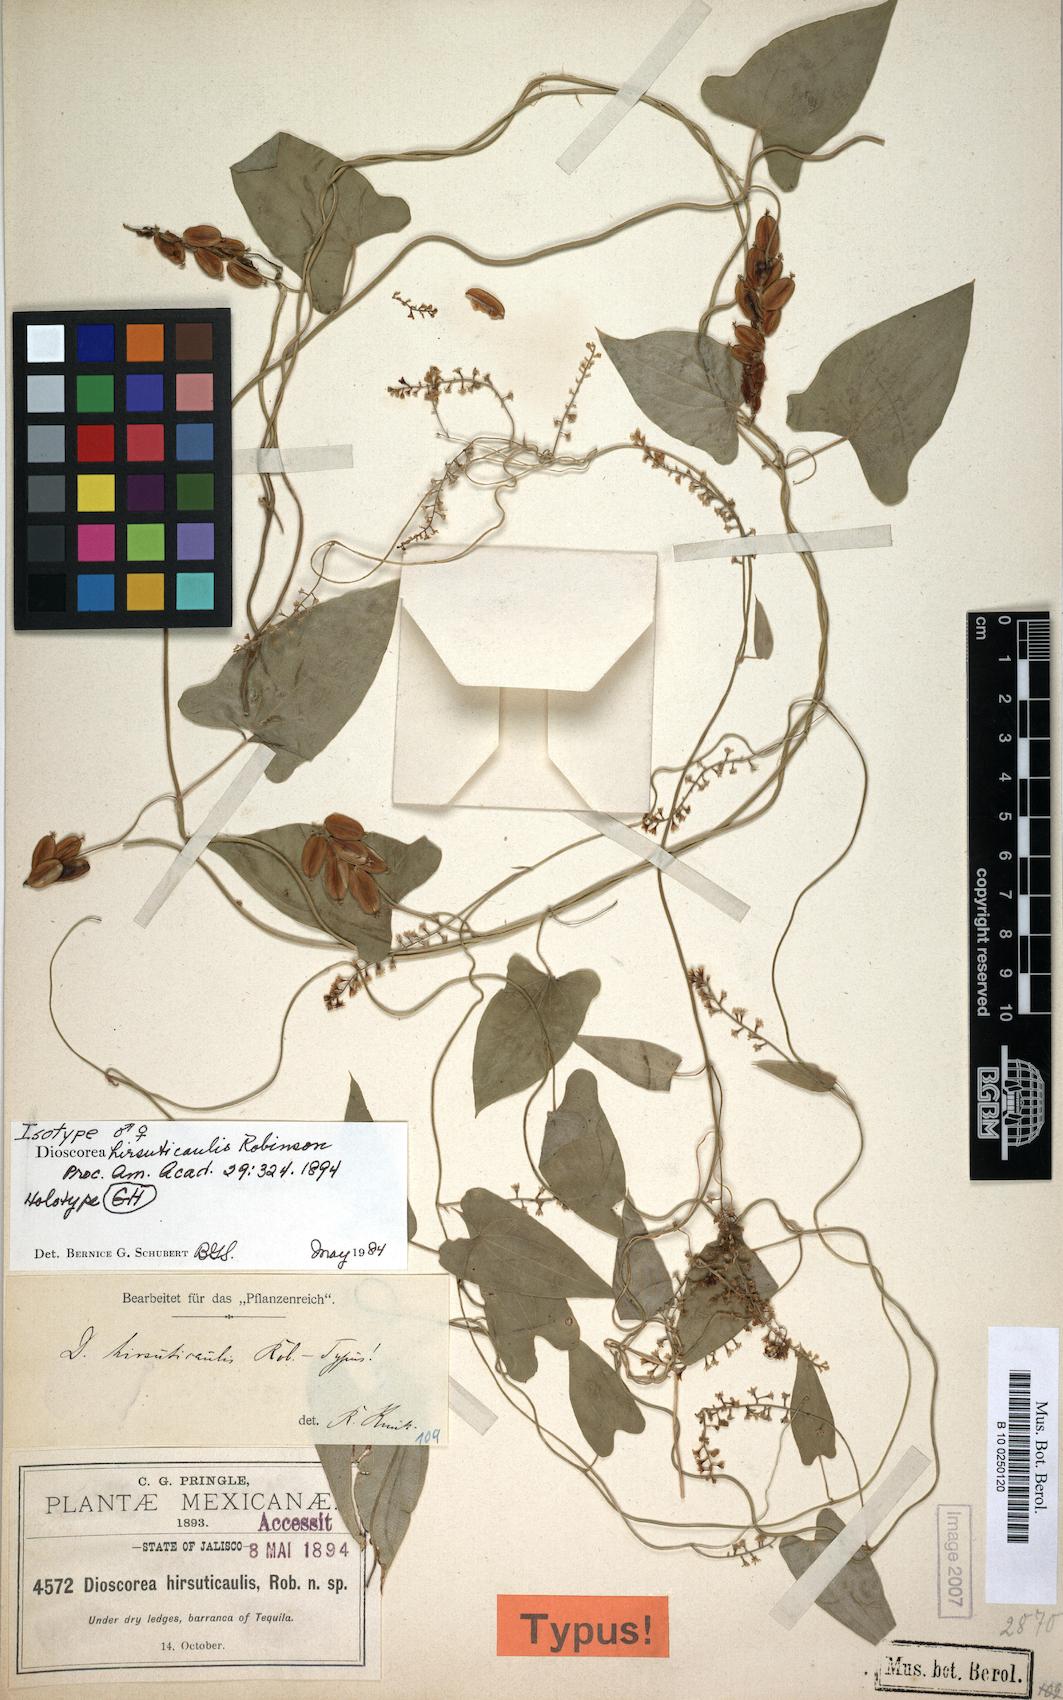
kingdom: Plantae
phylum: Tracheophyta
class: Liliopsida
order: Dioscoreales
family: Dioscoreaceae
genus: Dioscorea
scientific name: Dioscorea hirsuticaulis
